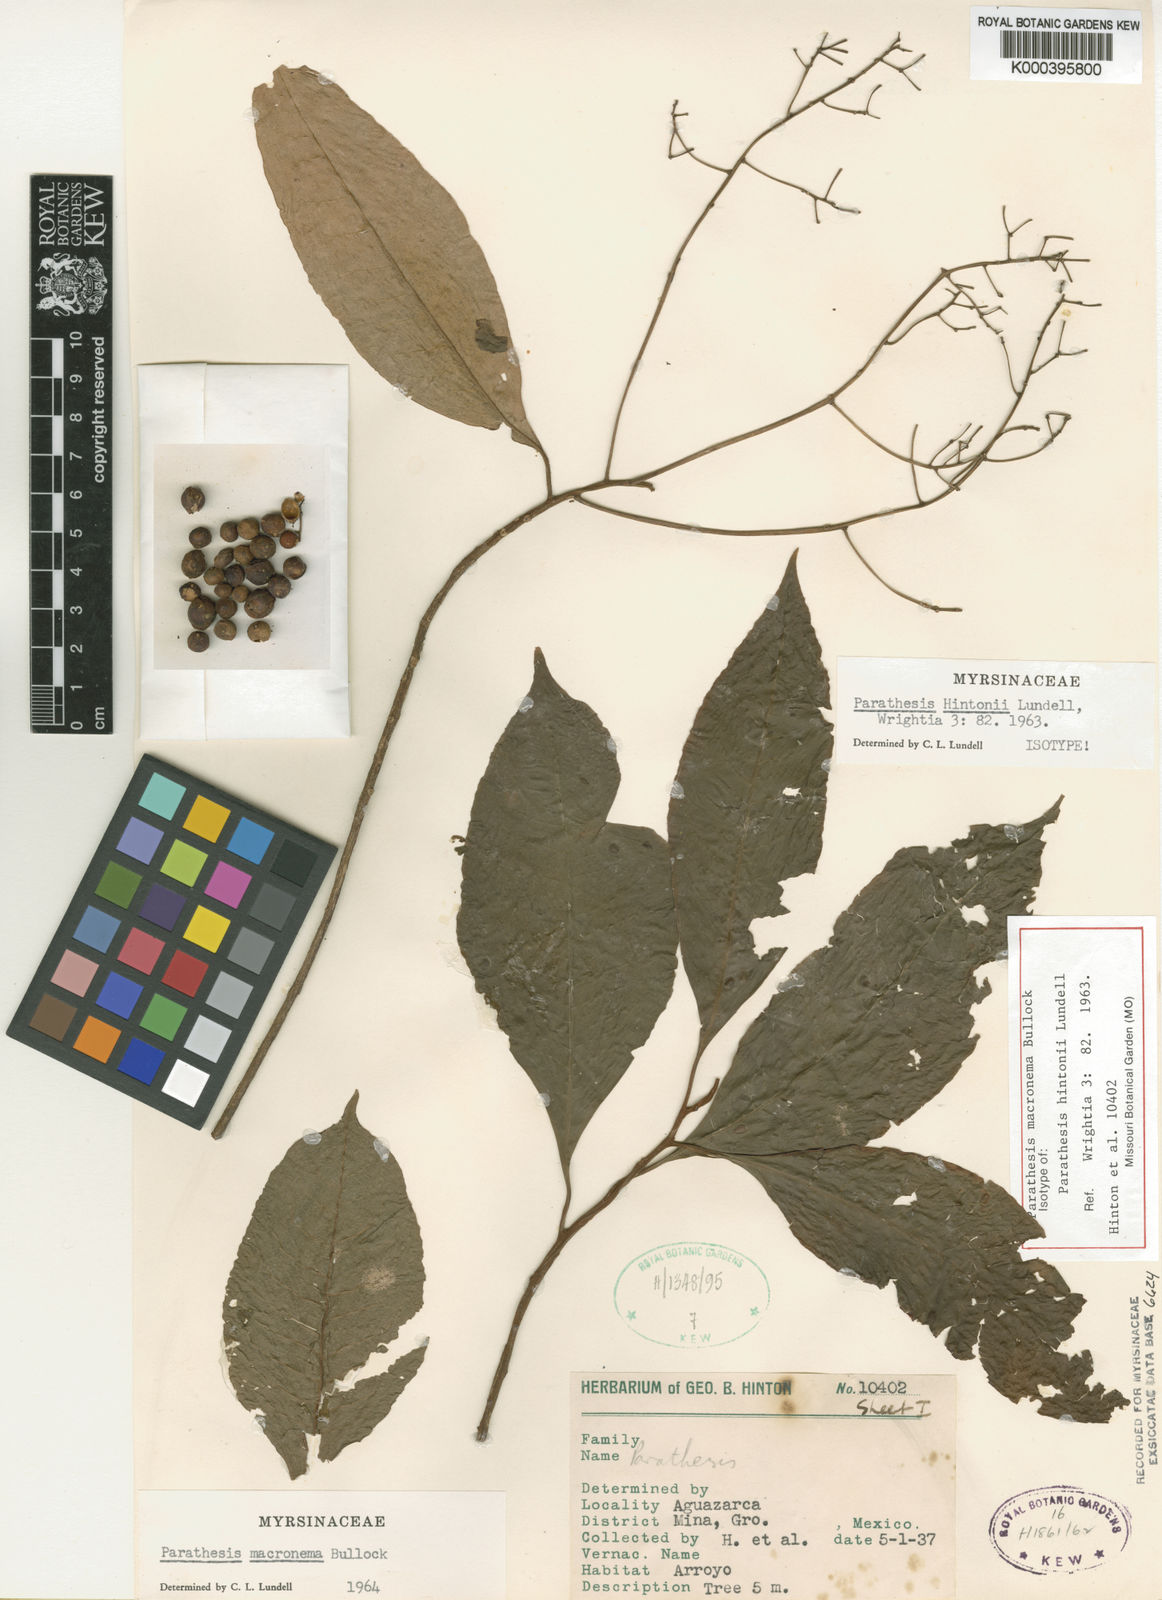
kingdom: Plantae
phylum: Tracheophyta
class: Magnoliopsida
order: Ericales
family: Primulaceae
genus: Parathesis
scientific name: Parathesis macronema
